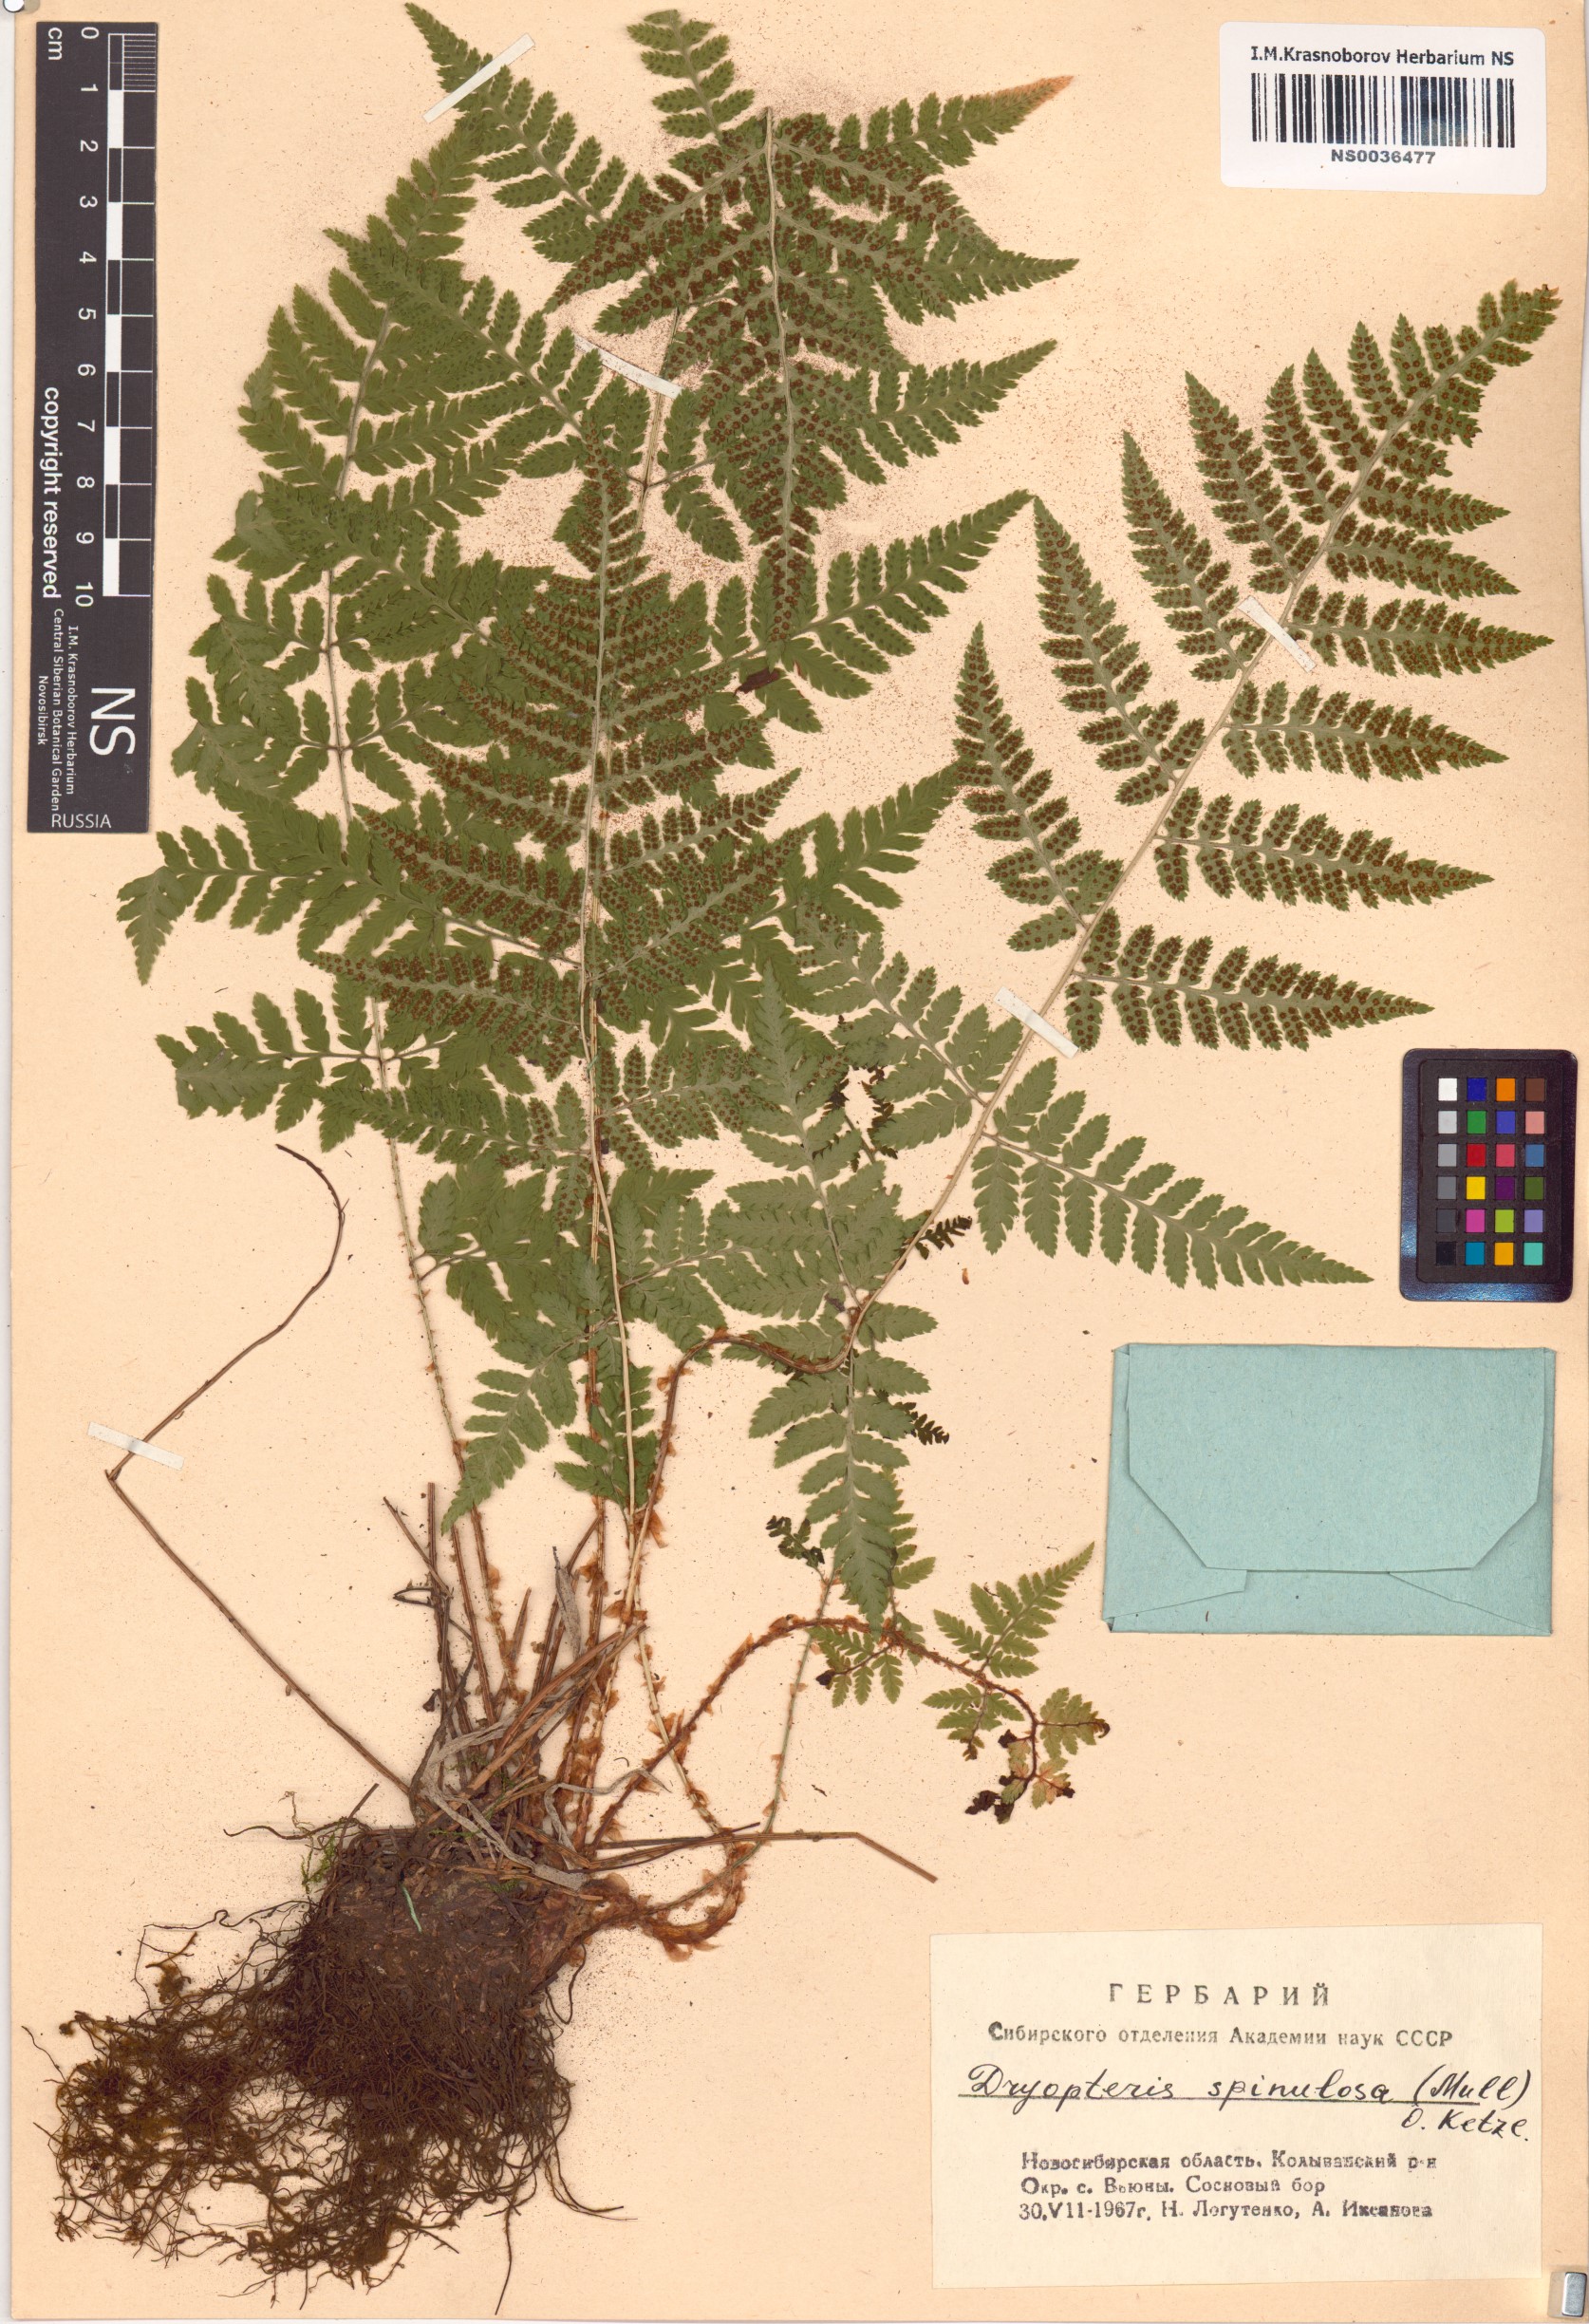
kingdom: Plantae
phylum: Tracheophyta
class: Polypodiopsida
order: Polypodiales
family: Dryopteridaceae
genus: Dryopteris
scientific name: Dryopteris carthusiana
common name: Narrow buckler-fern
